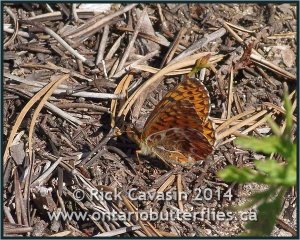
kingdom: Animalia
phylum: Arthropoda
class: Insecta
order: Lepidoptera
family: Nymphalidae
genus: Boloria
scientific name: Boloria freija
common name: Freija Fritillary
